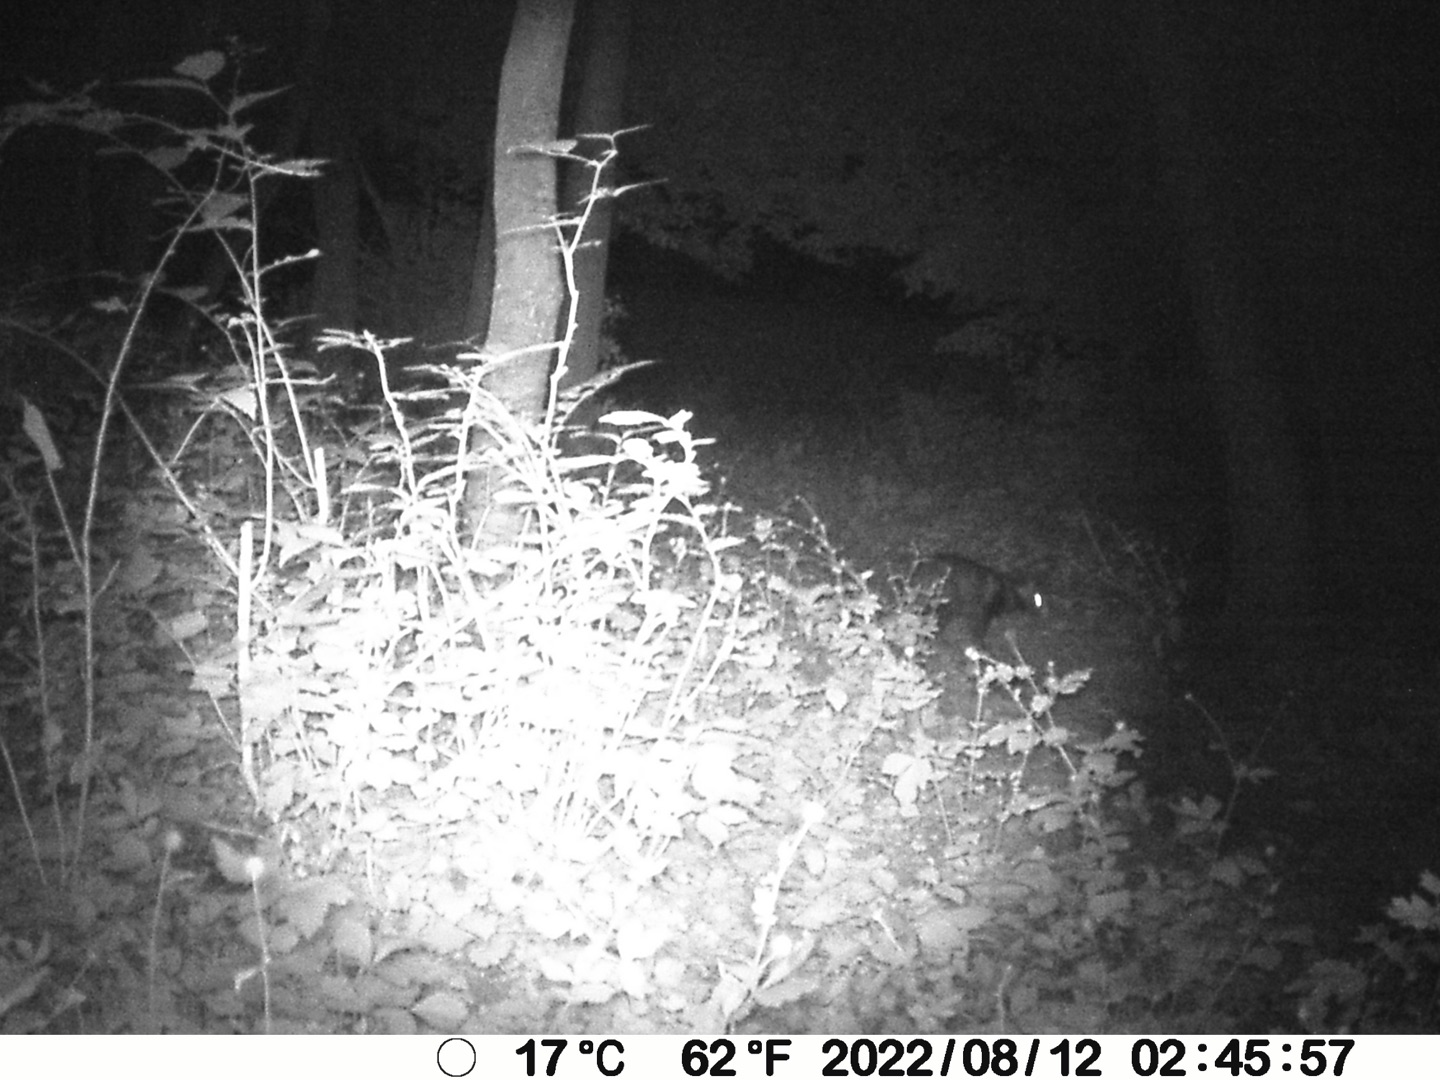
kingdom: Animalia
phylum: Chordata
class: Mammalia
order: Carnivora
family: Canidae
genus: Nyctereutes
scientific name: Nyctereutes procyonoides
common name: Mårhund
